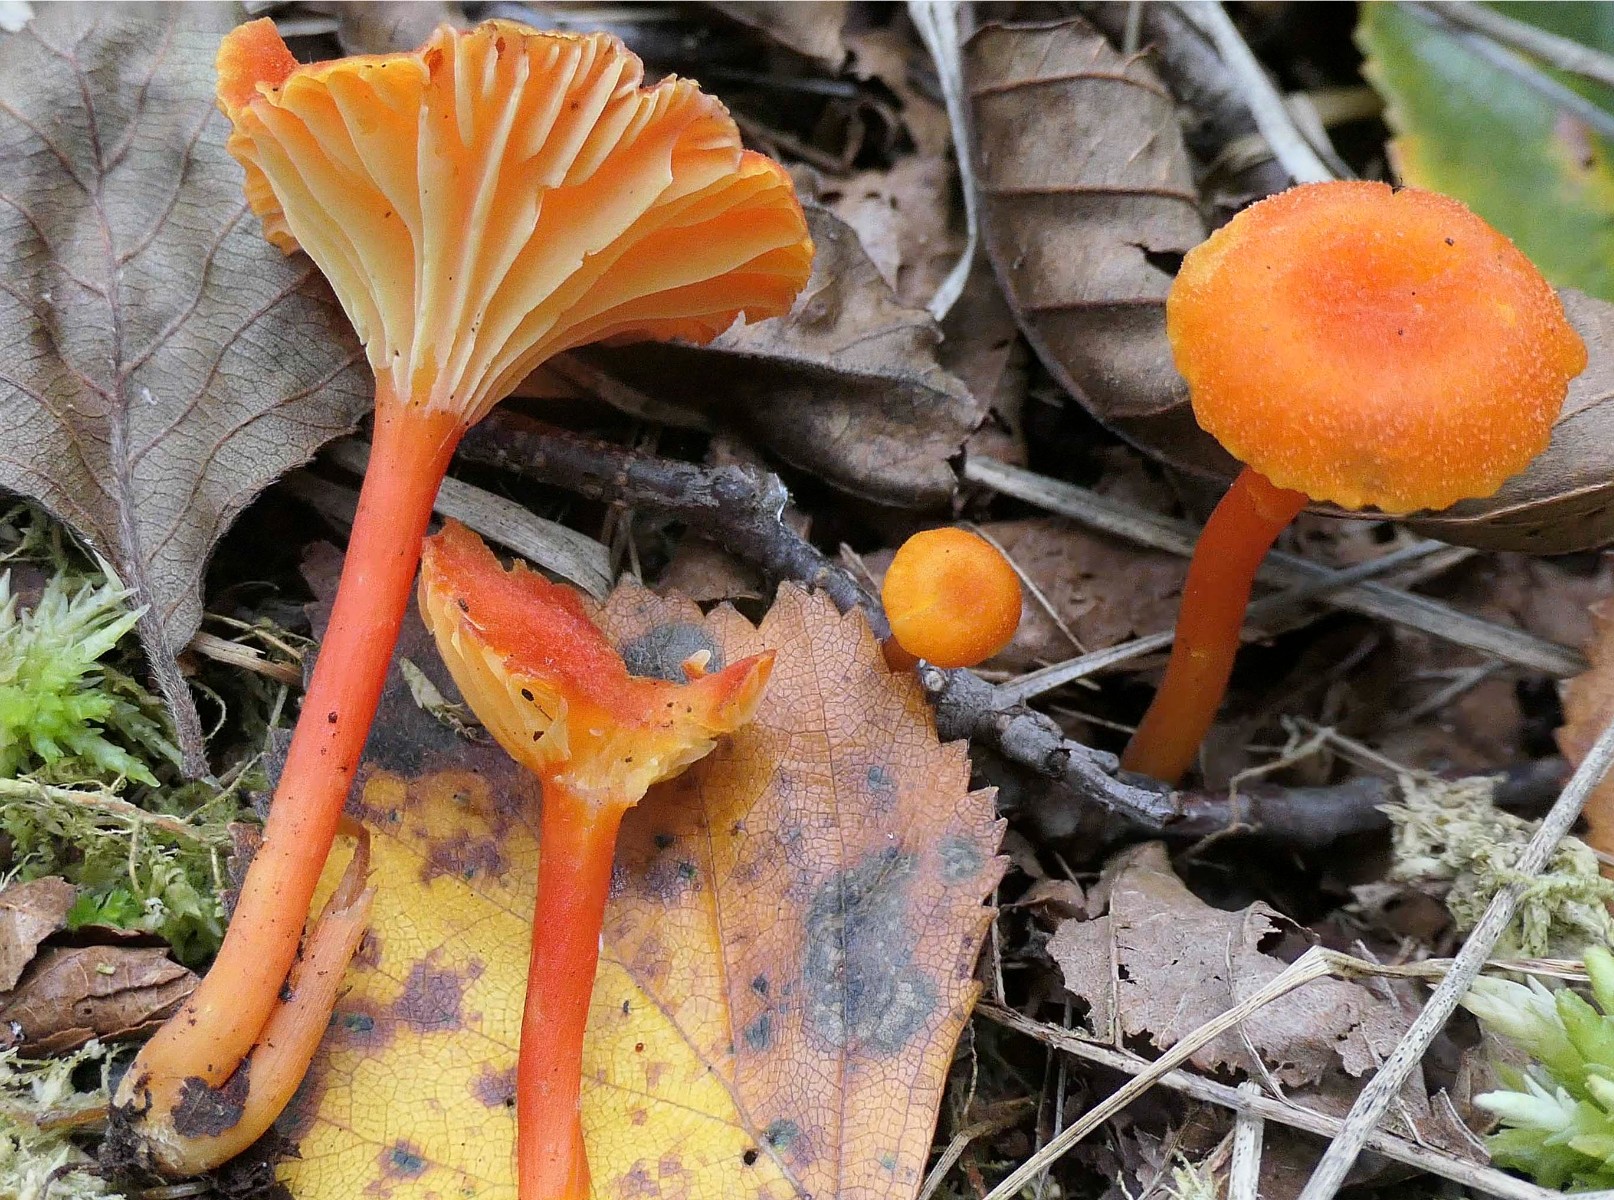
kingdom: Fungi
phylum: Basidiomycota
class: Agaricomycetes
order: Agaricales
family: Hygrophoraceae
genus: Hygrocybe
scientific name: Hygrocybe cantharellus
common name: kantarel-vokshat
